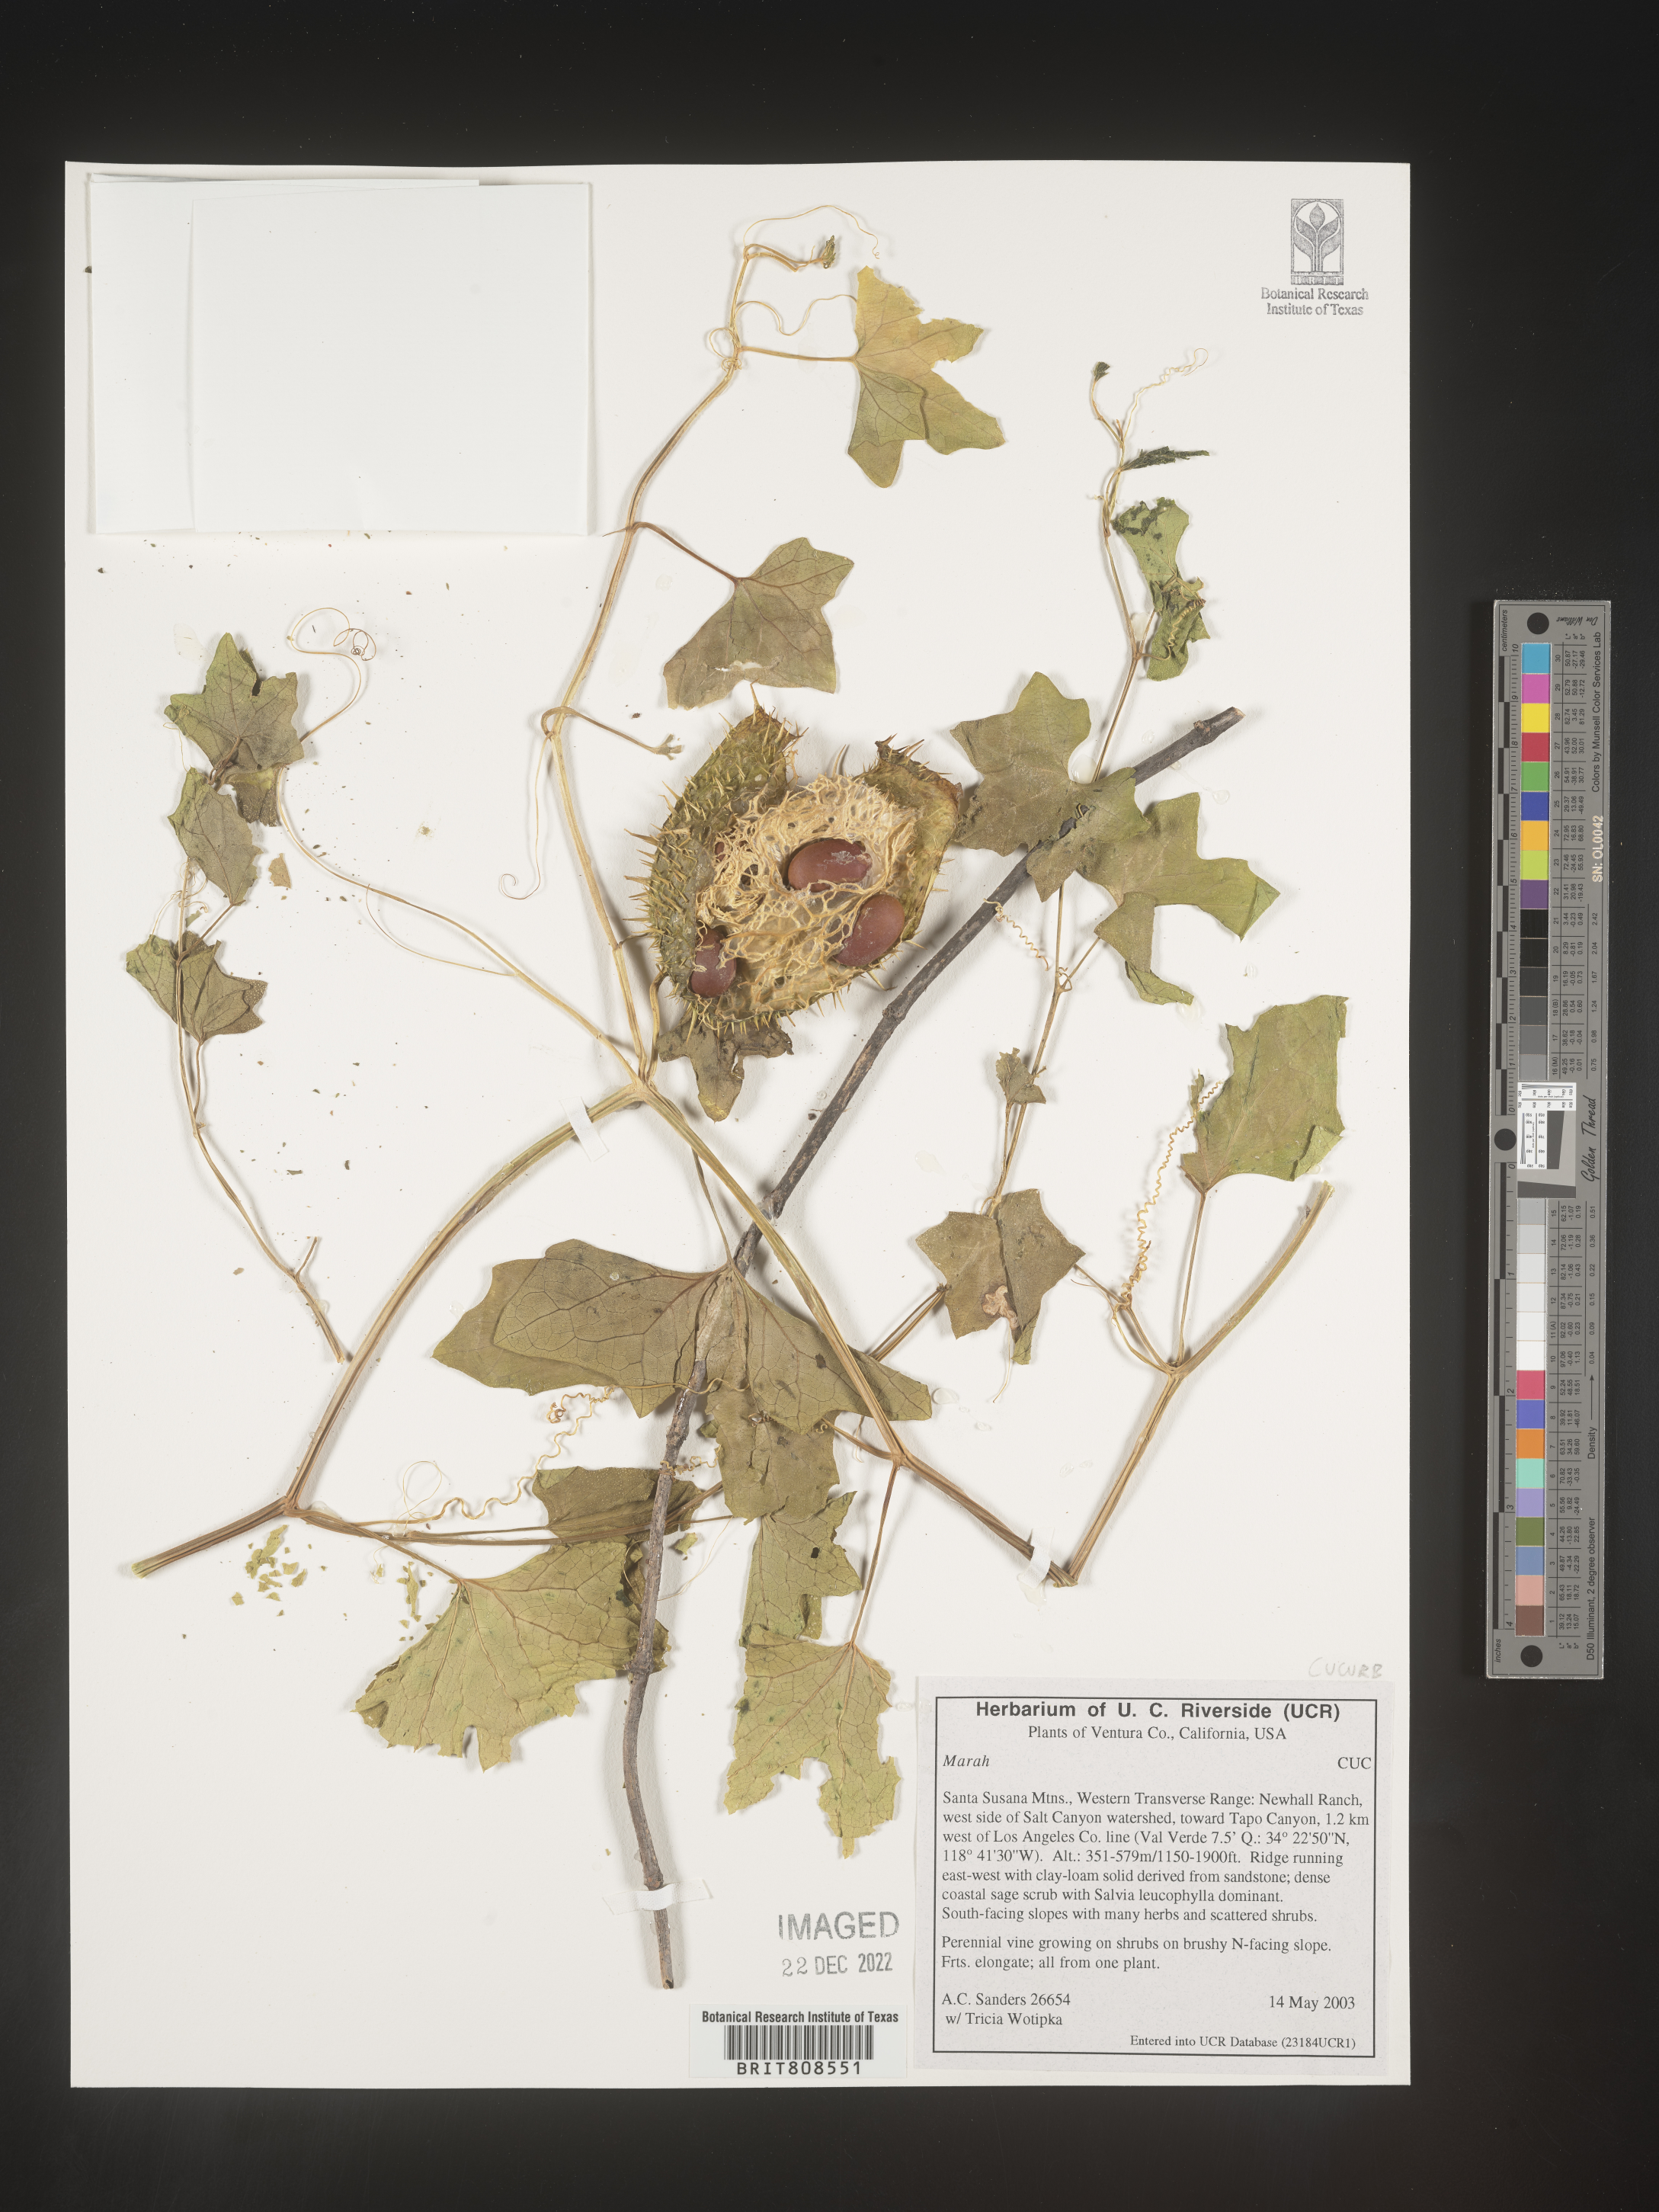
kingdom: Plantae
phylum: Tracheophyta
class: Magnoliopsida
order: Cucurbitales
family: Cucurbitaceae
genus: Marah
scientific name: Marah
